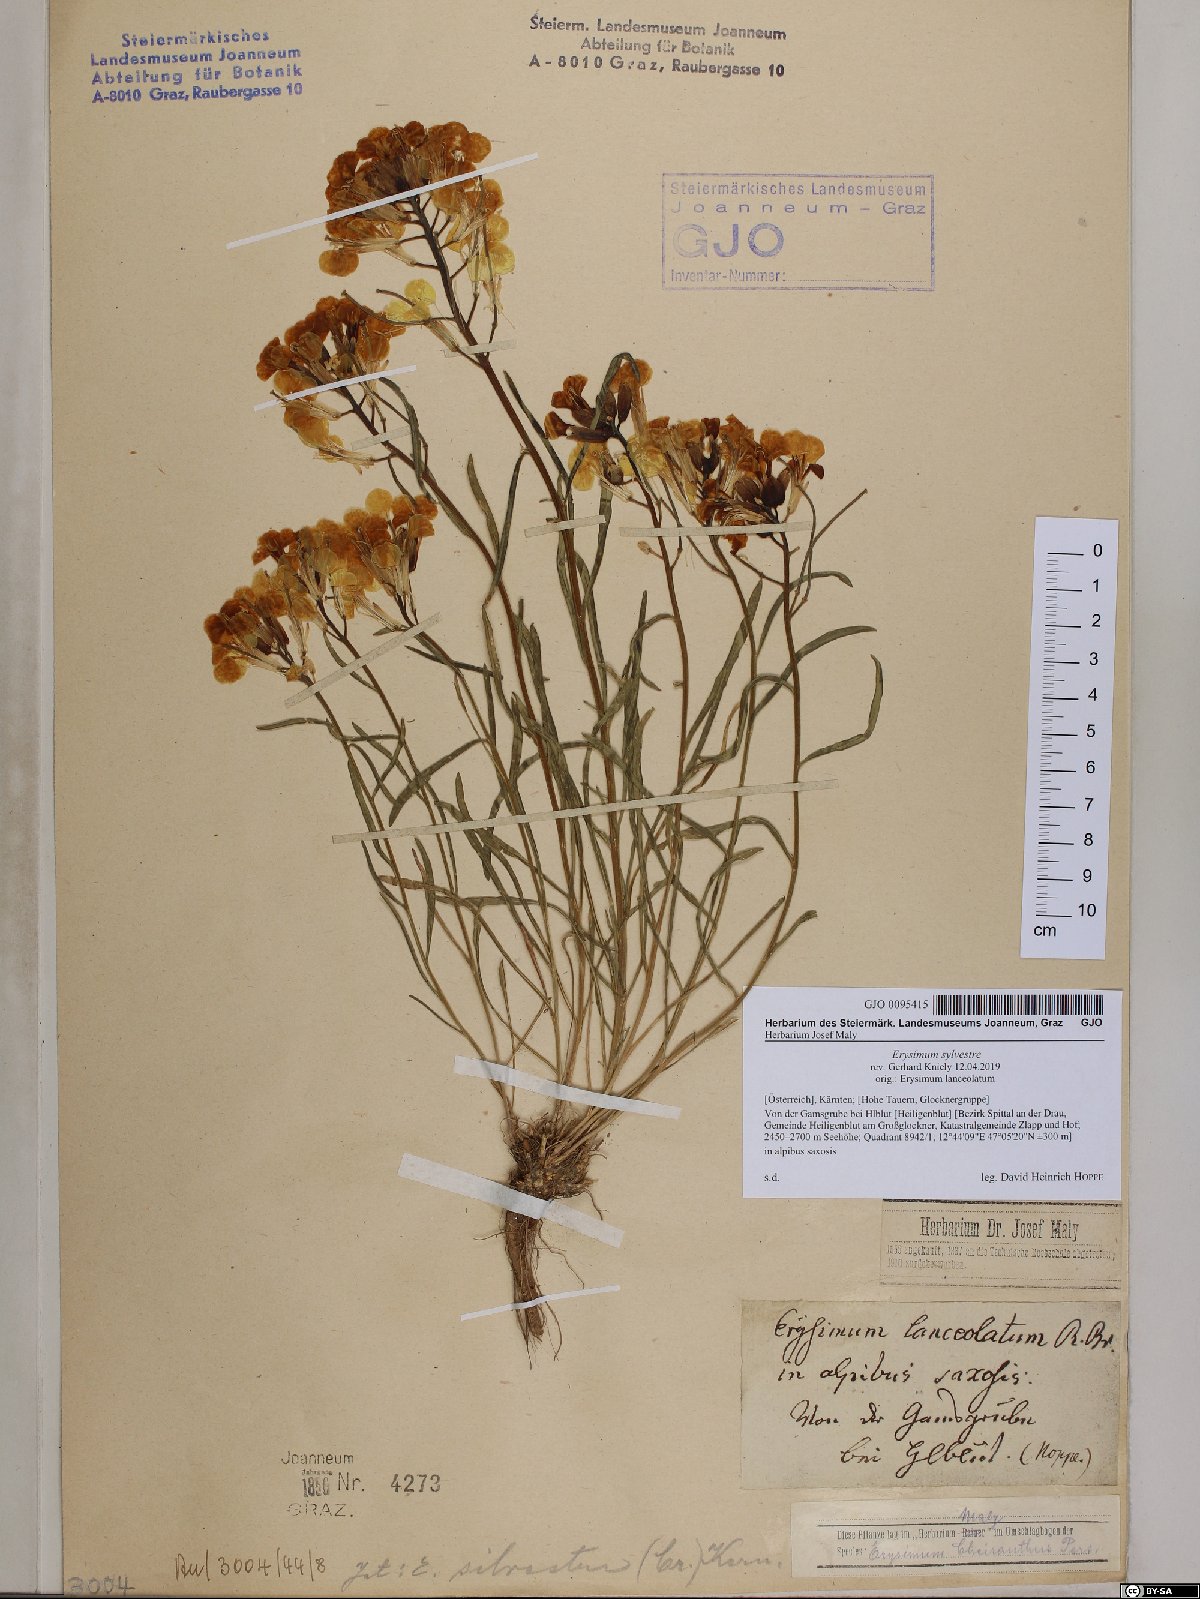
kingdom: Plantae
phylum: Tracheophyta
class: Magnoliopsida
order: Brassicales
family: Brassicaceae
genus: Erysimum
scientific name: Erysimum sylvestre
